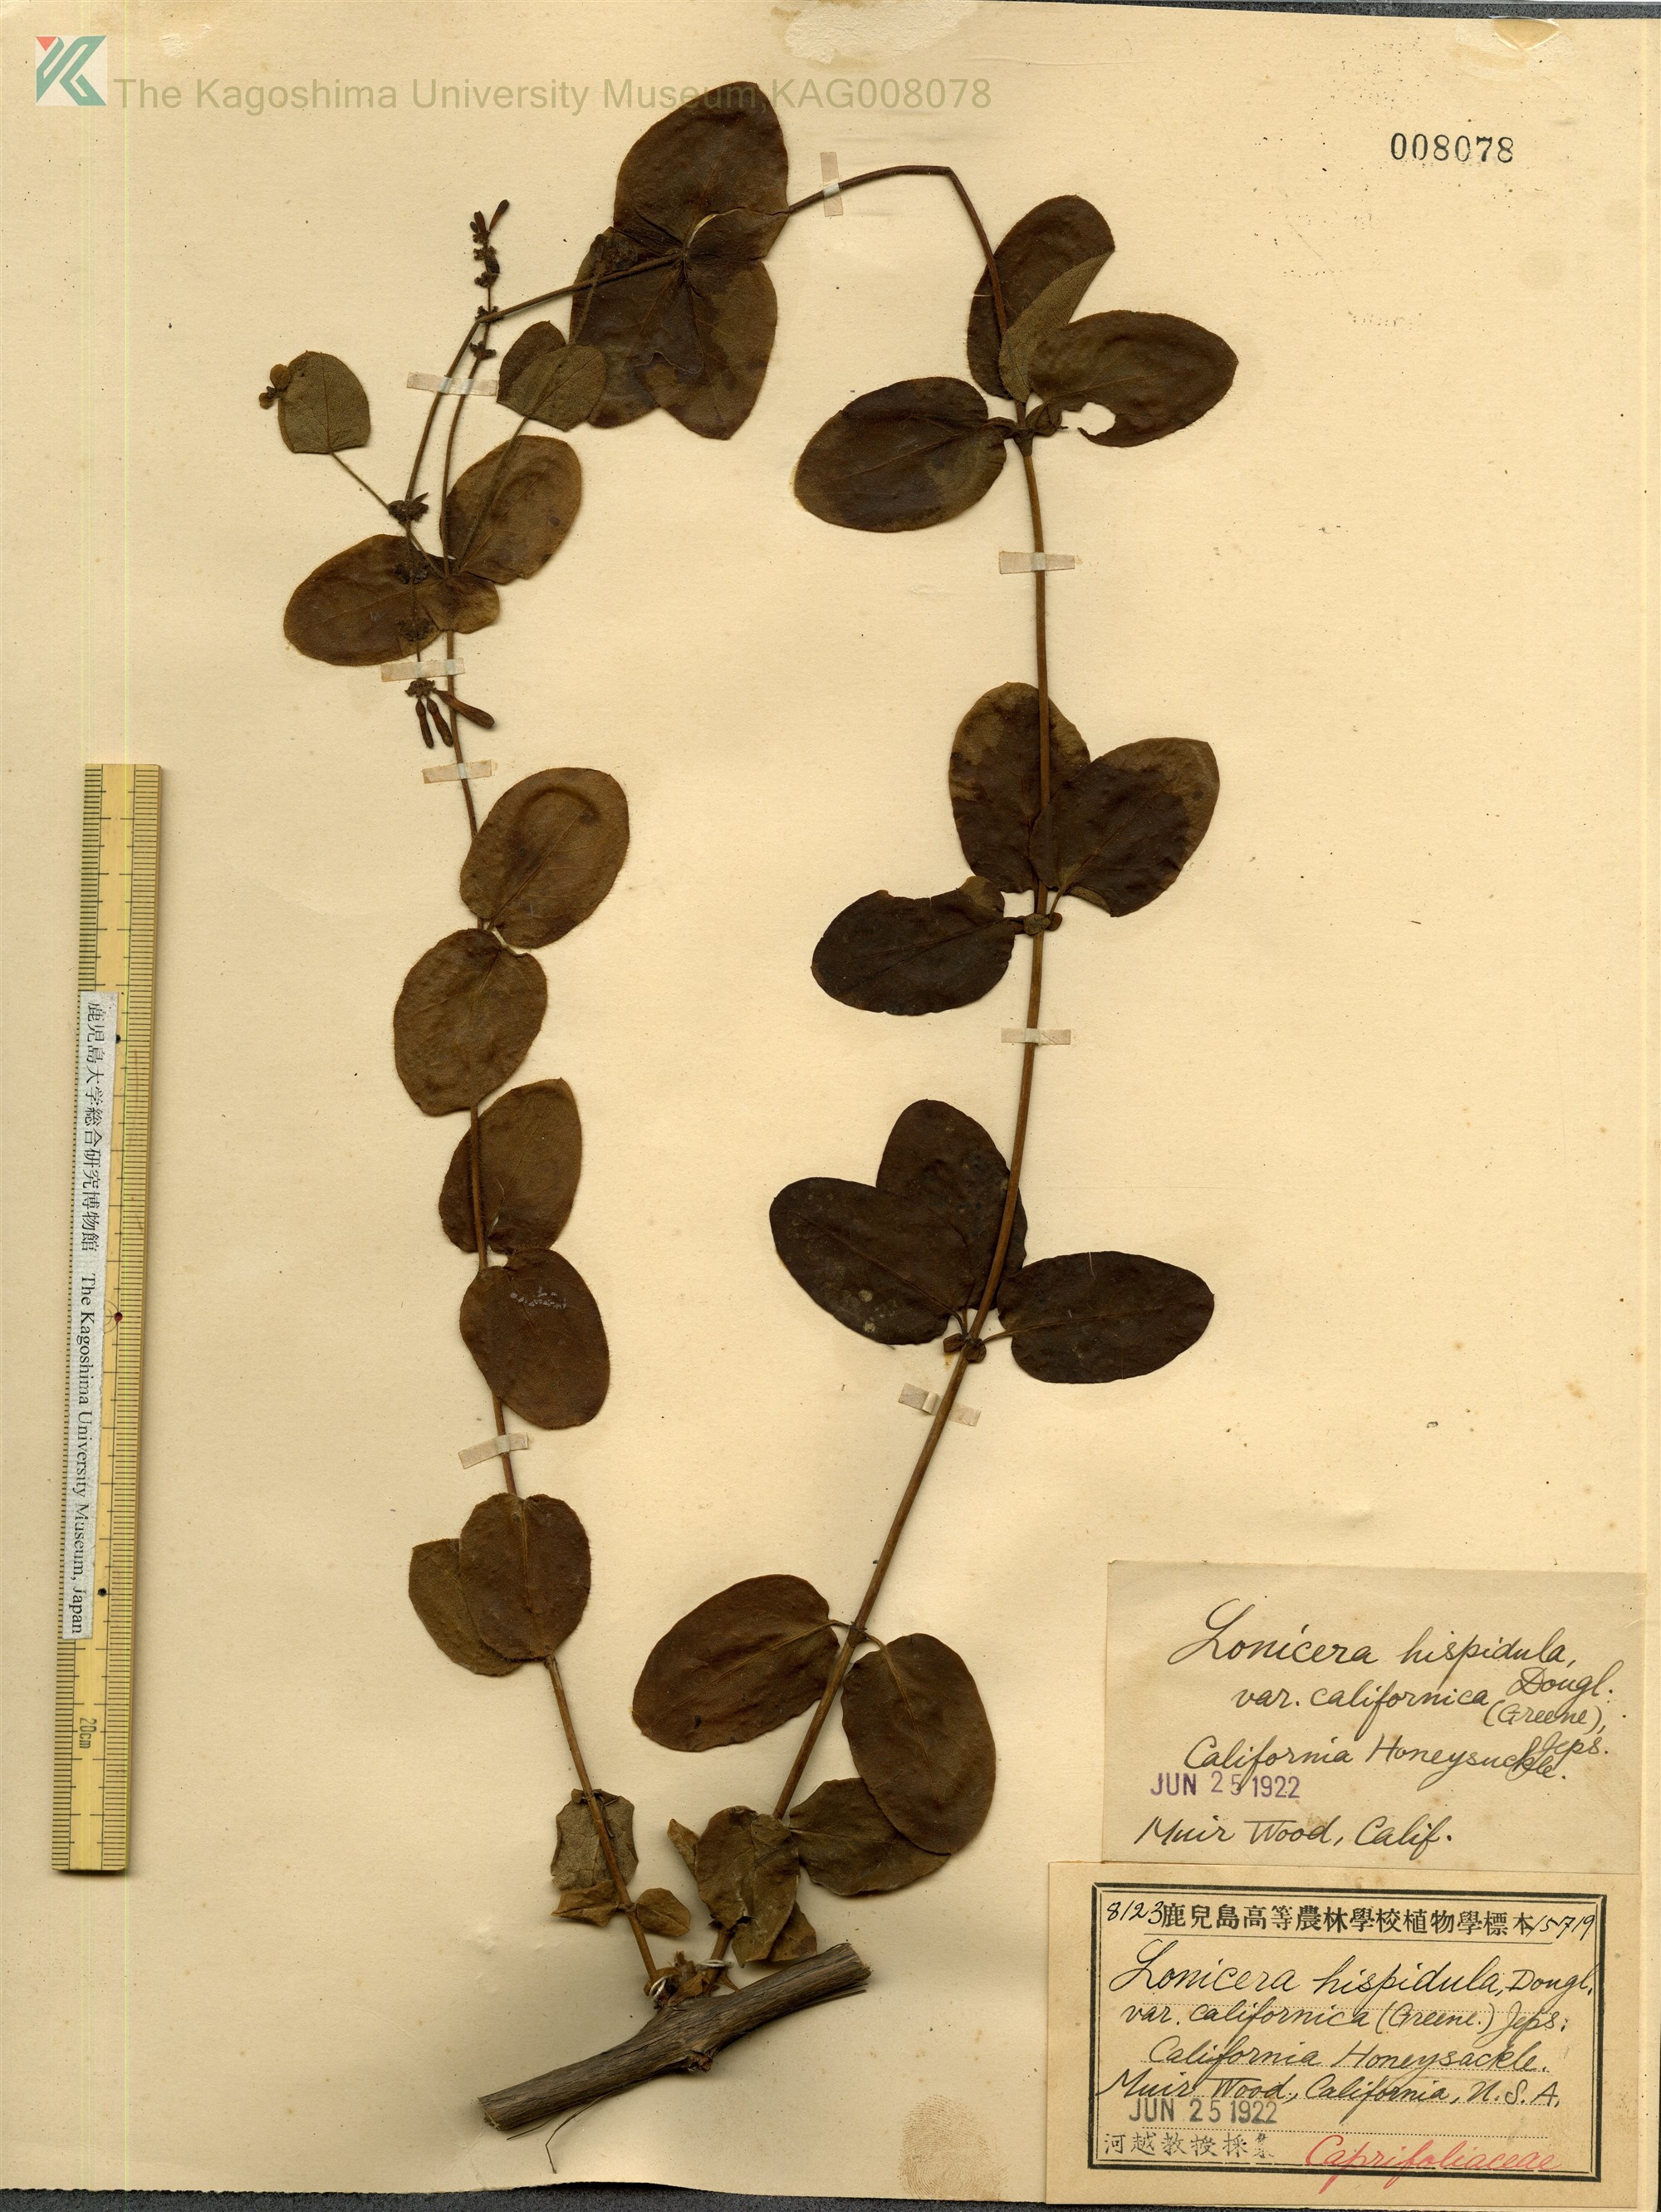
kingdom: Plantae
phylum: Tracheophyta
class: Magnoliopsida
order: Dipsacales
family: Caprifoliaceae
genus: Lonicera
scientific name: Lonicera hispidula
